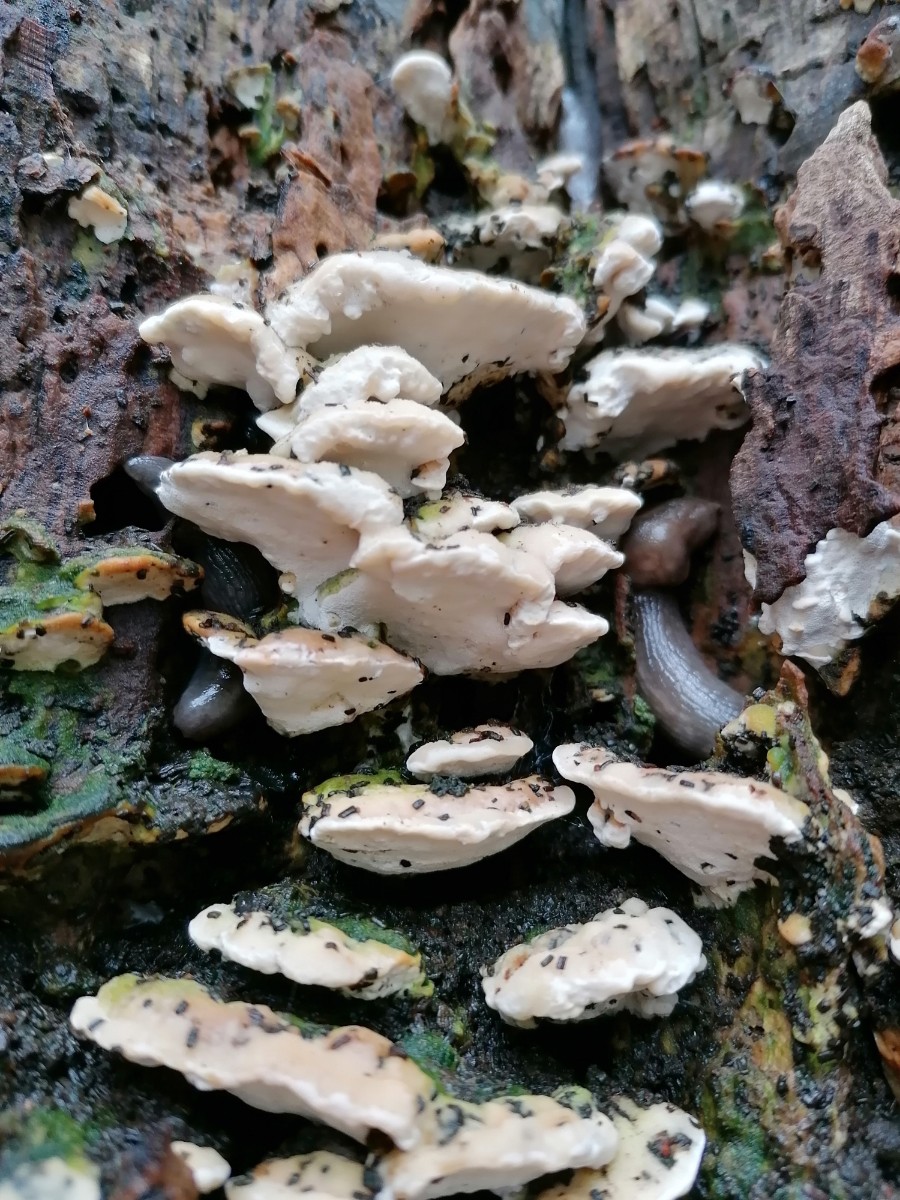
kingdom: Fungi
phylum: Basidiomycota
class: Agaricomycetes
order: Hymenochaetales
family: Oxyporaceae
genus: Oxyporus
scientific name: Oxyporus populinus
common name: sammenvokset trylleporesvamp
